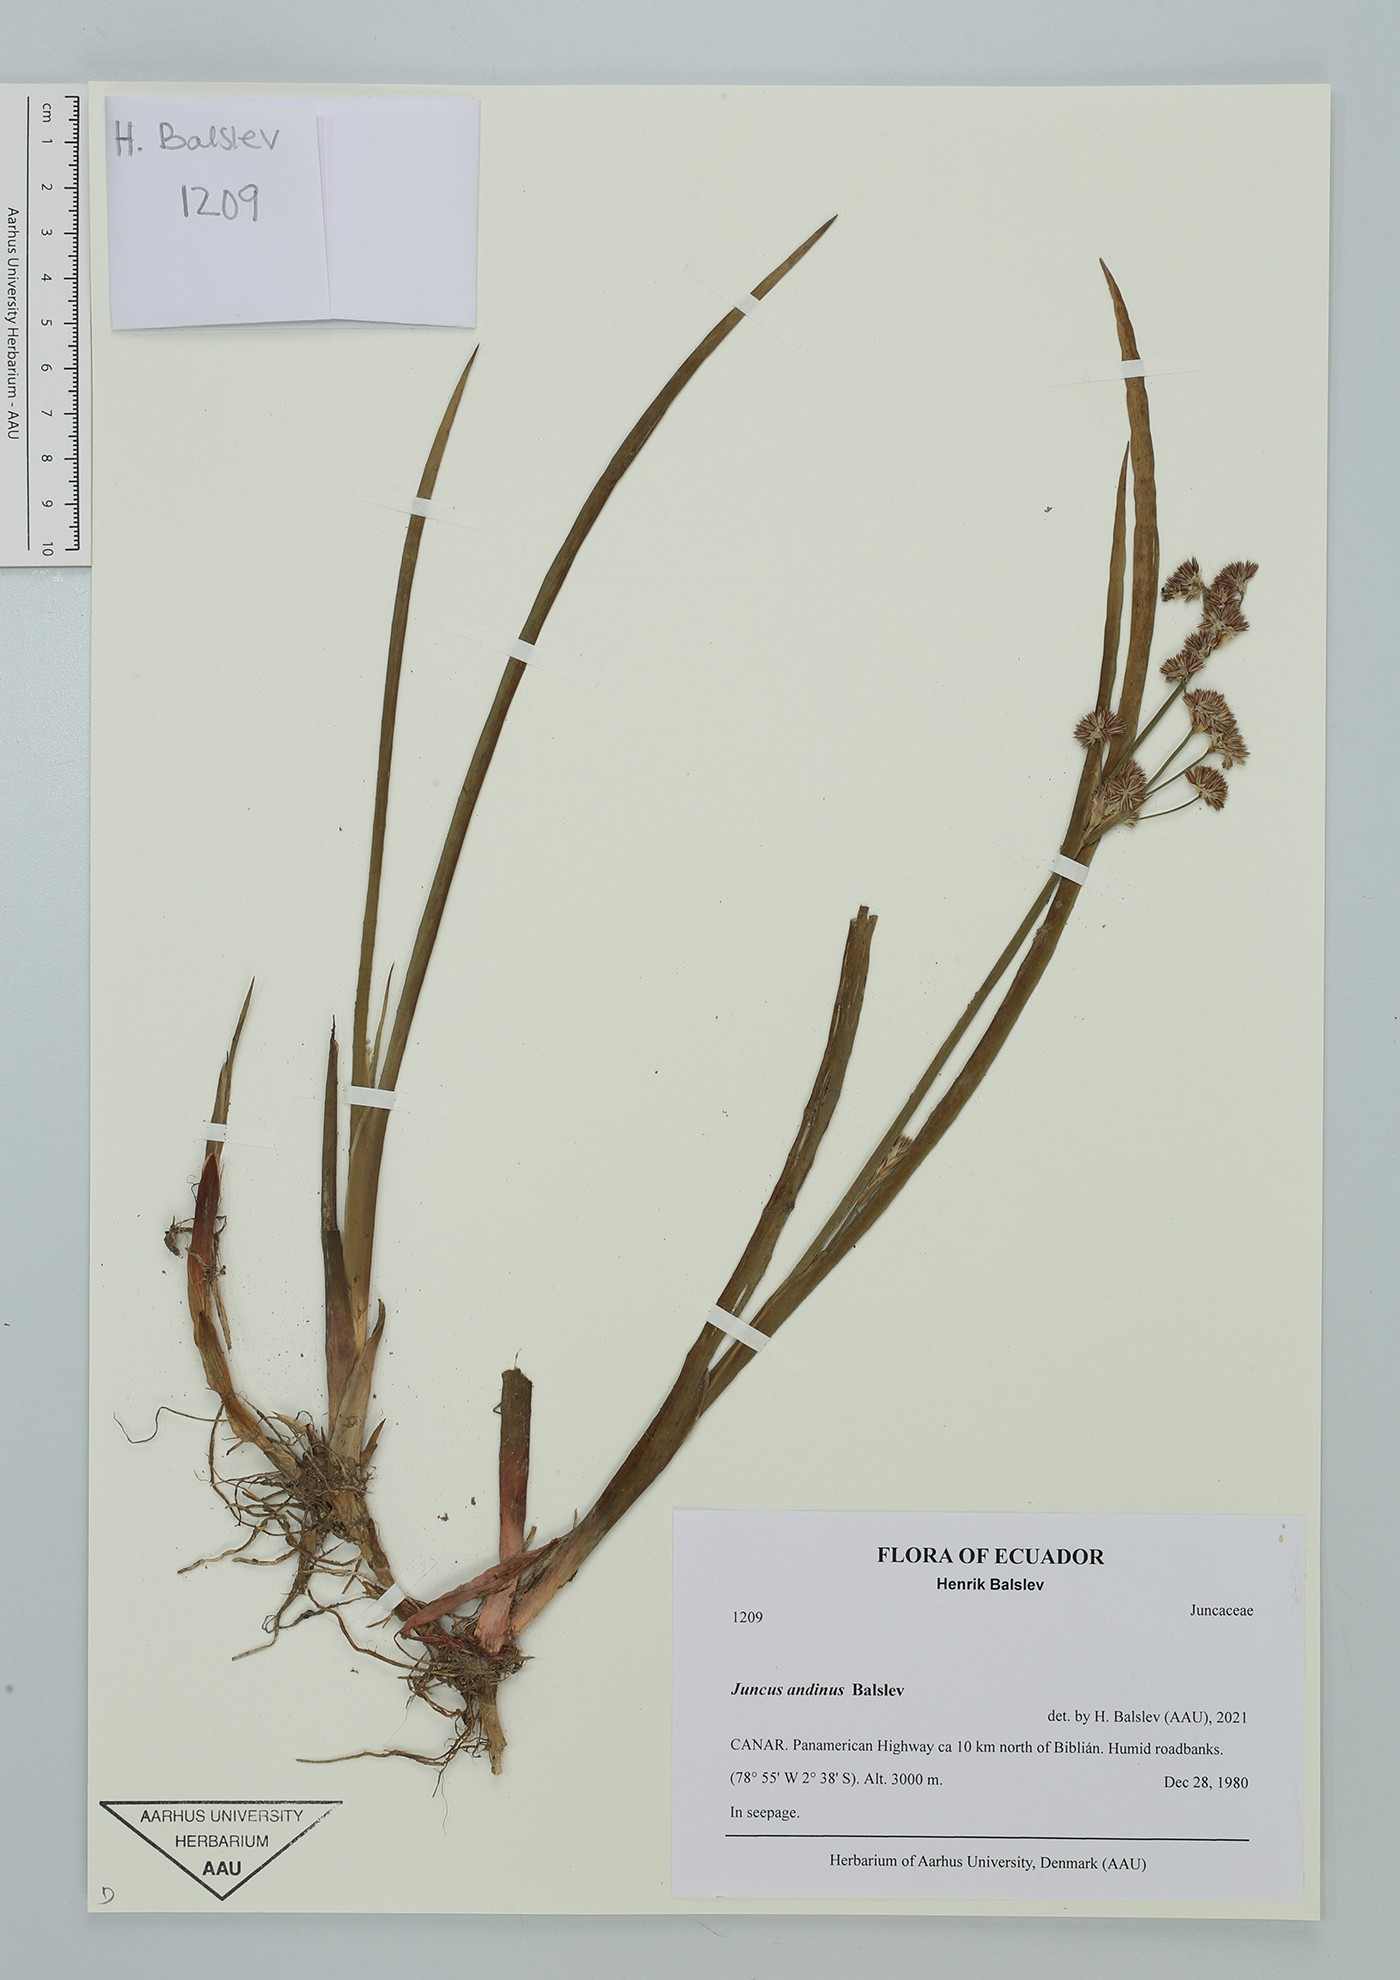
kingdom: Plantae
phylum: Tracheophyta
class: Liliopsida
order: Poales
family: Juncaceae
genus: Juncus
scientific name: Juncus andinus
